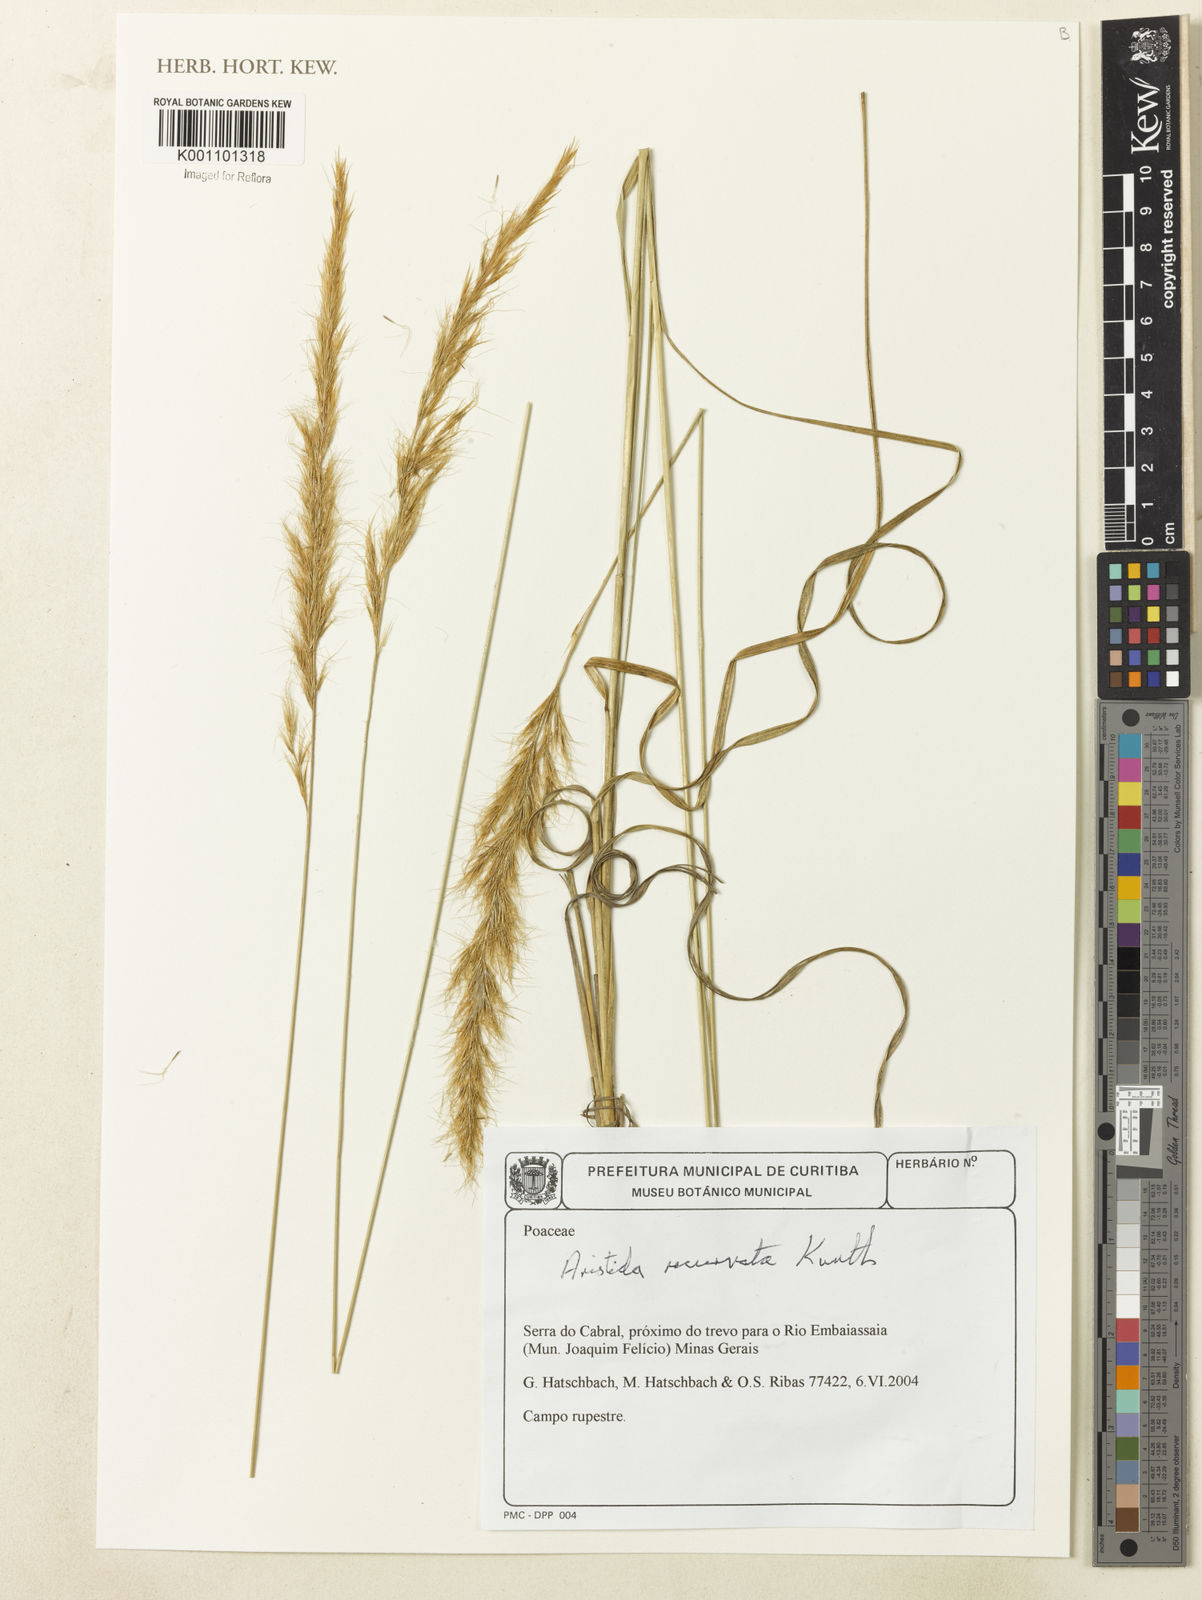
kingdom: Plantae
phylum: Tracheophyta
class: Liliopsida
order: Poales
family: Poaceae
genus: Aristida
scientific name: Aristida recurvata
